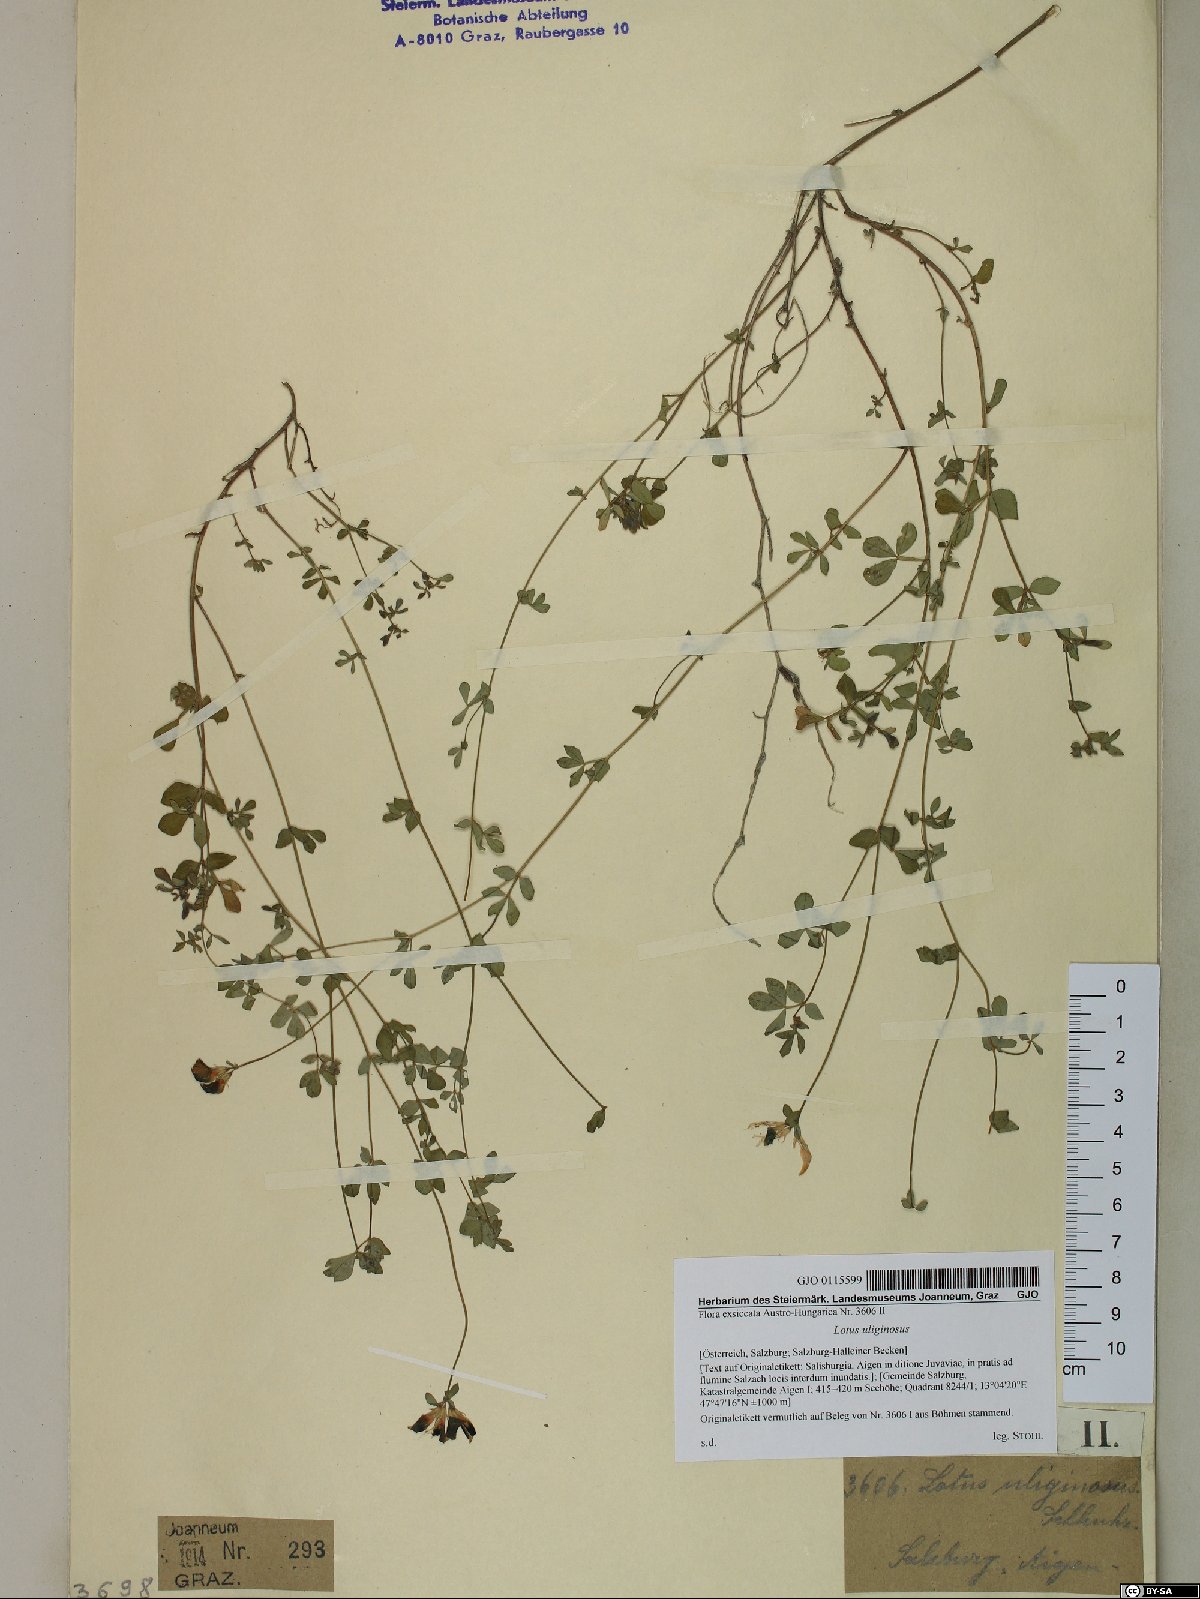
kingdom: Plantae
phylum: Tracheophyta
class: Magnoliopsida
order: Fabales
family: Fabaceae
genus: Lotus
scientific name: Lotus pedunculatus
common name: Greater birdsfoot-trefoil
